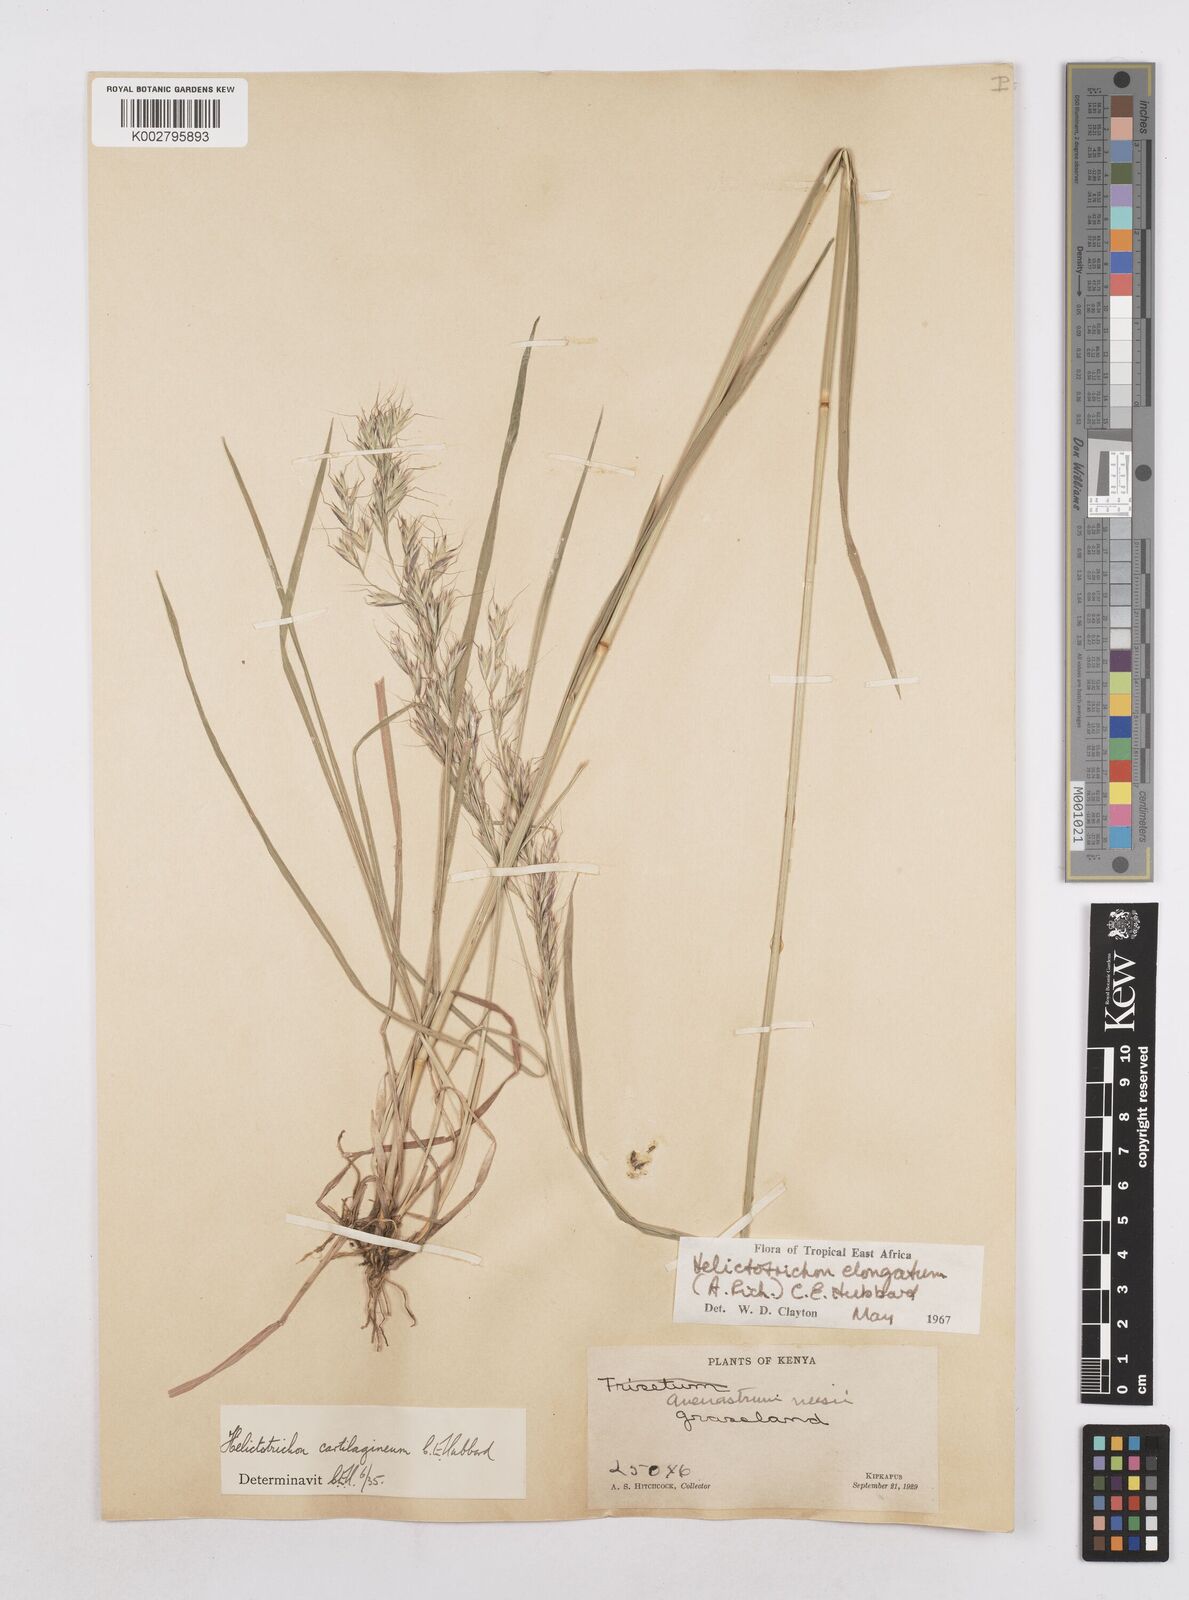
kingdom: Plantae
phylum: Tracheophyta
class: Liliopsida
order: Poales
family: Poaceae
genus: Trisetopsis
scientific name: Trisetopsis elongata
